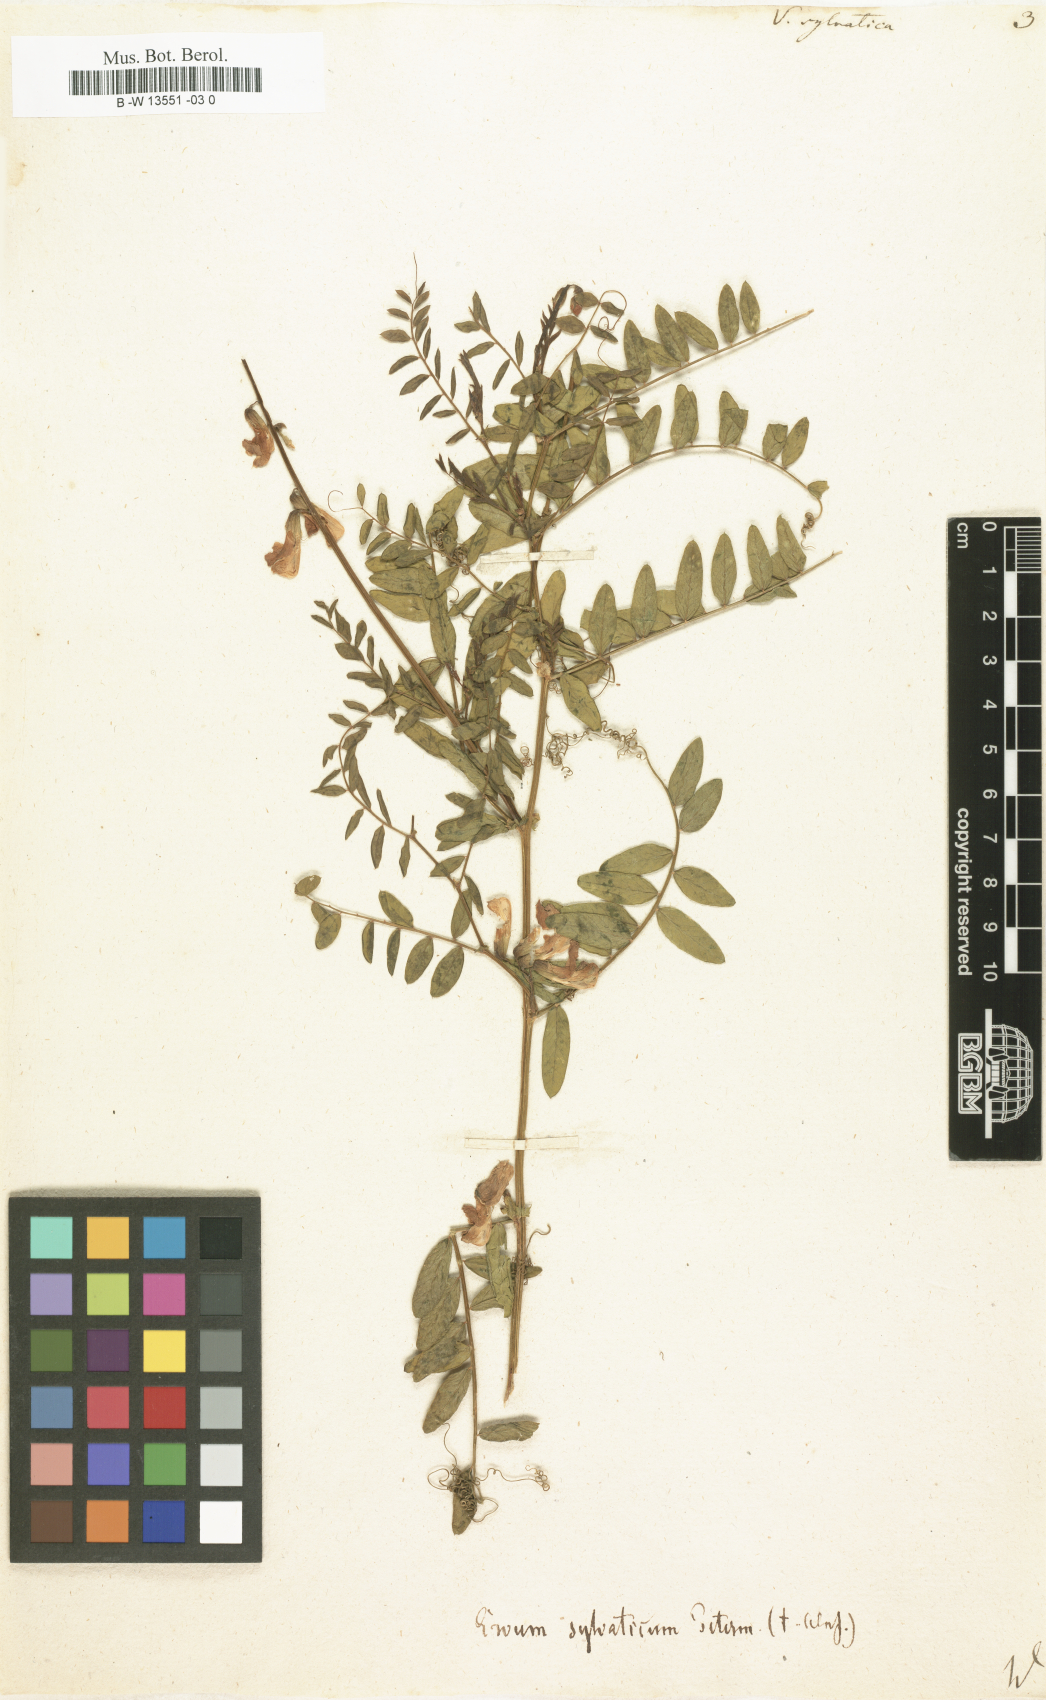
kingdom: Plantae
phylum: Tracheophyta
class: Magnoliopsida
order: Fabales
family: Fabaceae
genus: Vicia
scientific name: Vicia sylvatica
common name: Wood vetch
